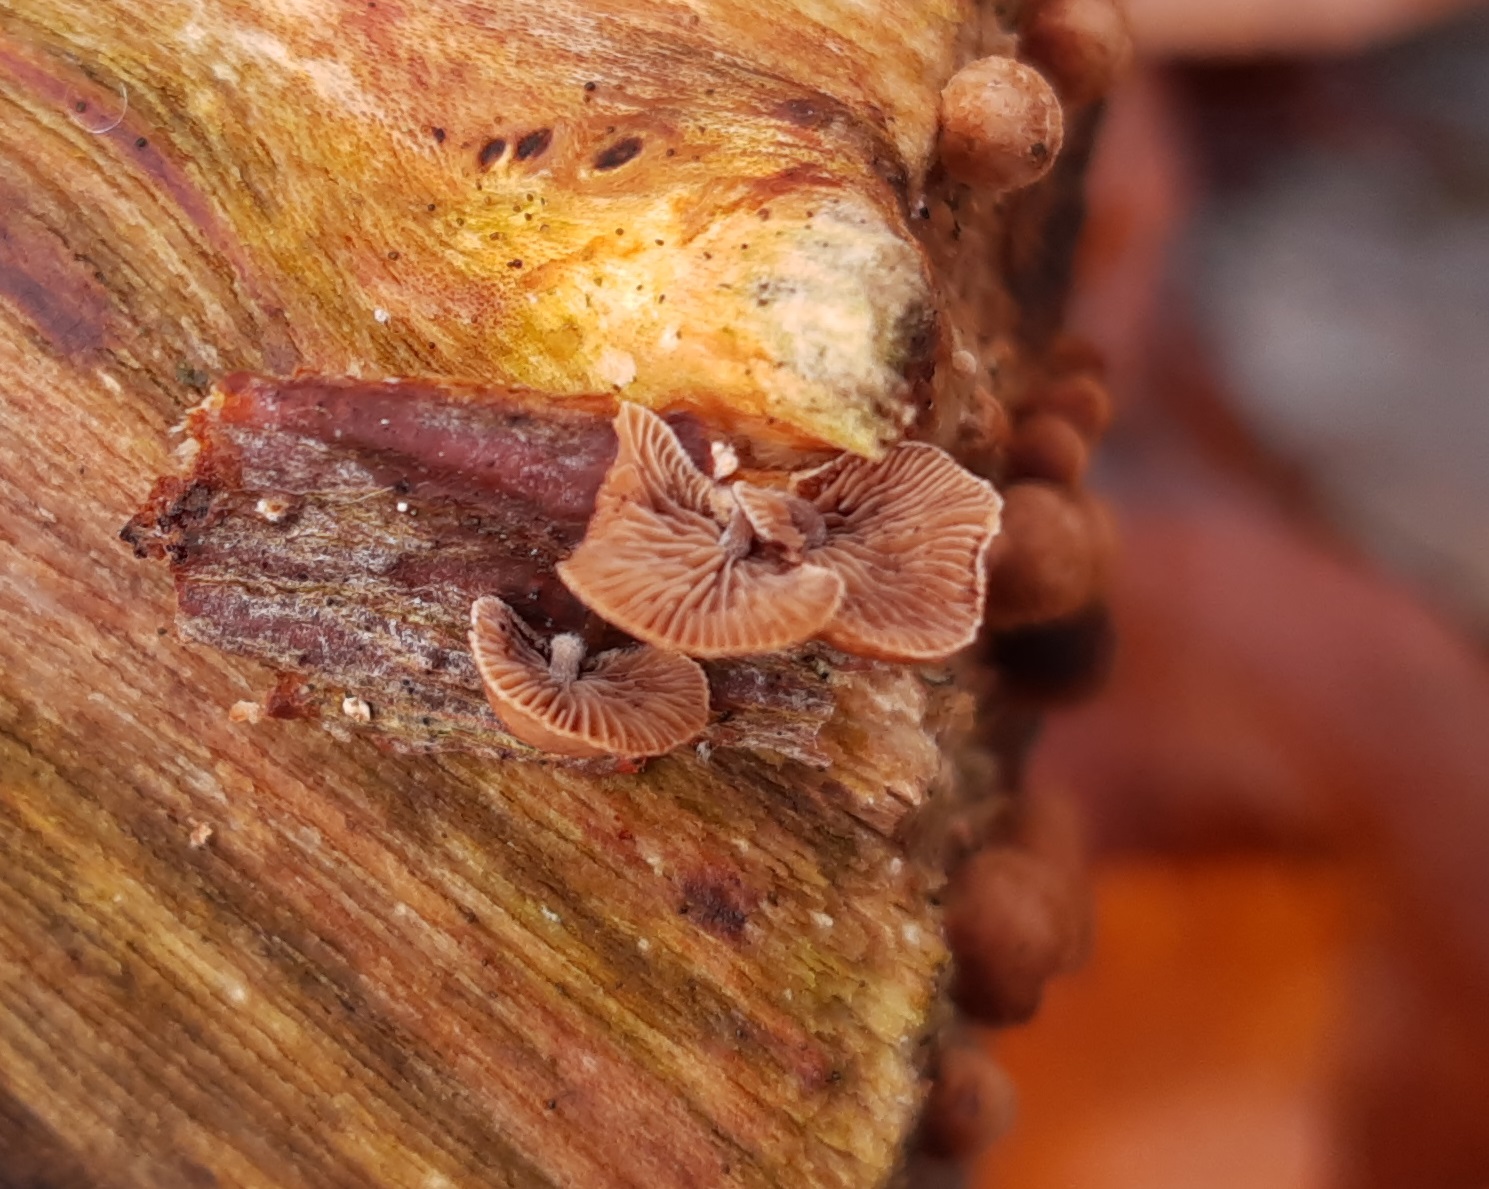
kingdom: Fungi
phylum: Basidiomycota
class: Agaricomycetes
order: Agaricales
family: Strophariaceae
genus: Deconica
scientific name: Deconica horizontalis
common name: ved-stråhat
